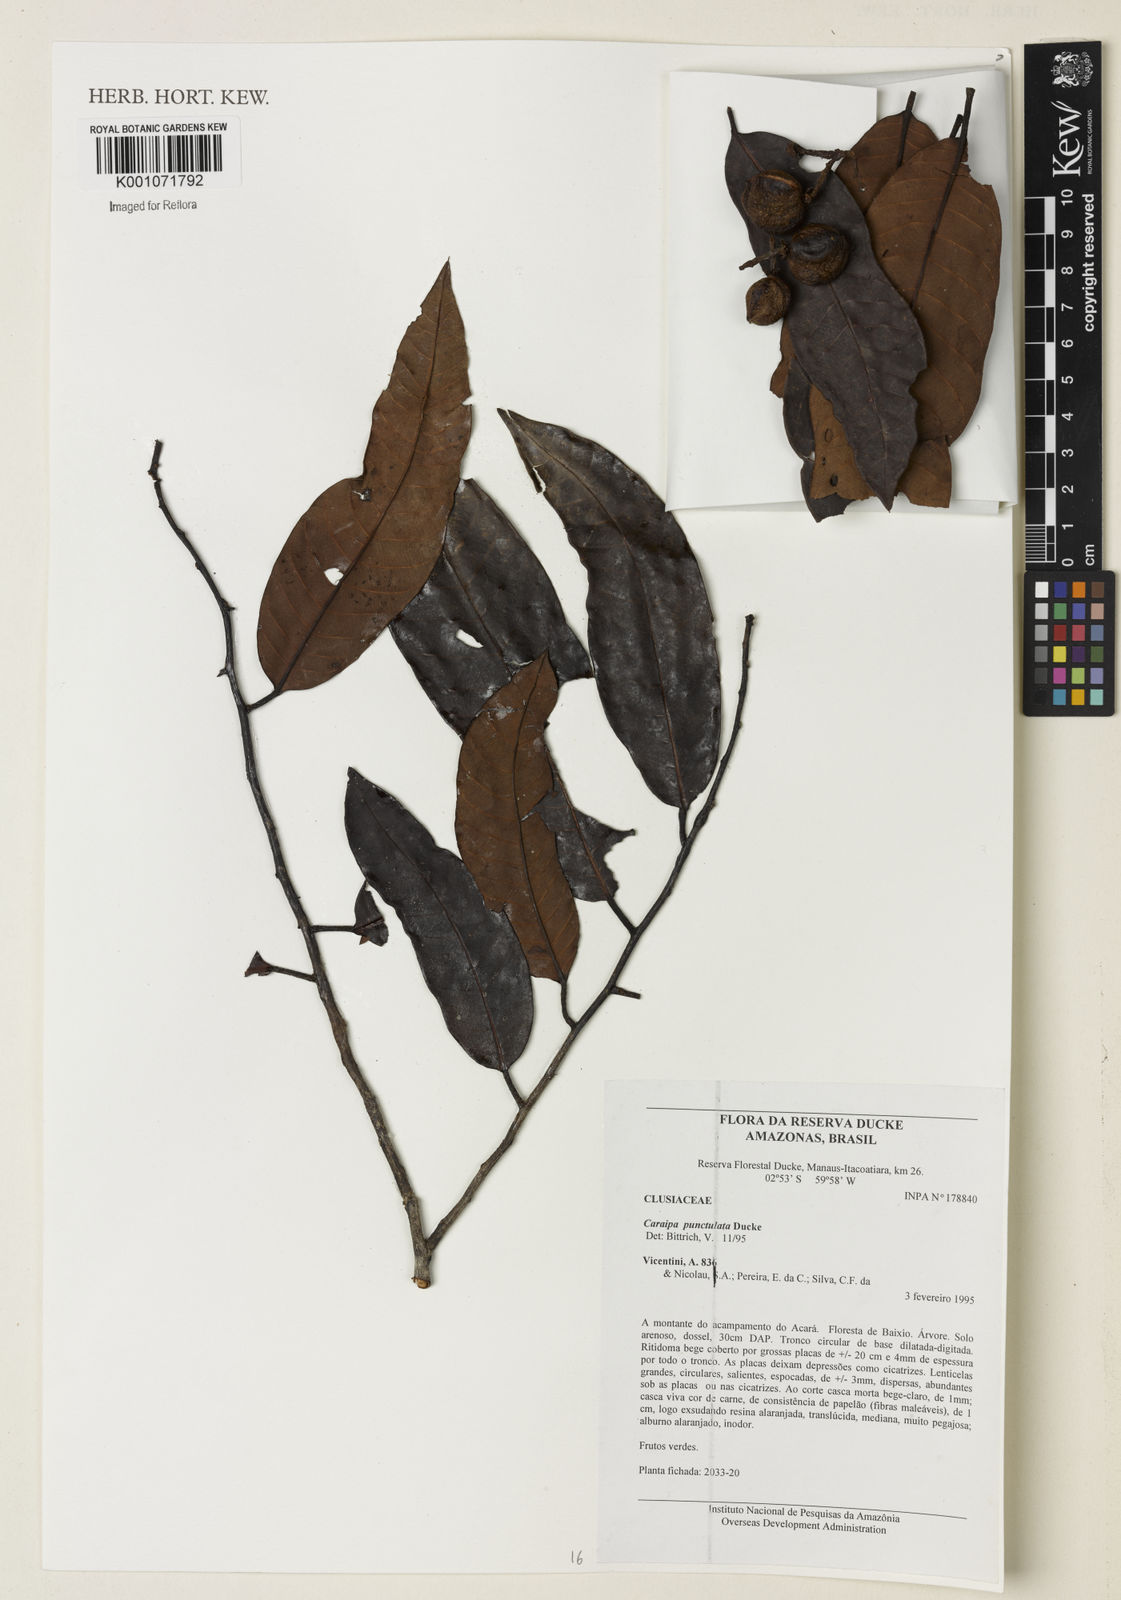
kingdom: Plantae
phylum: Tracheophyta
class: Magnoliopsida
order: Malpighiales
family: Calophyllaceae
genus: Caraipa
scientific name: Caraipa punctulata
